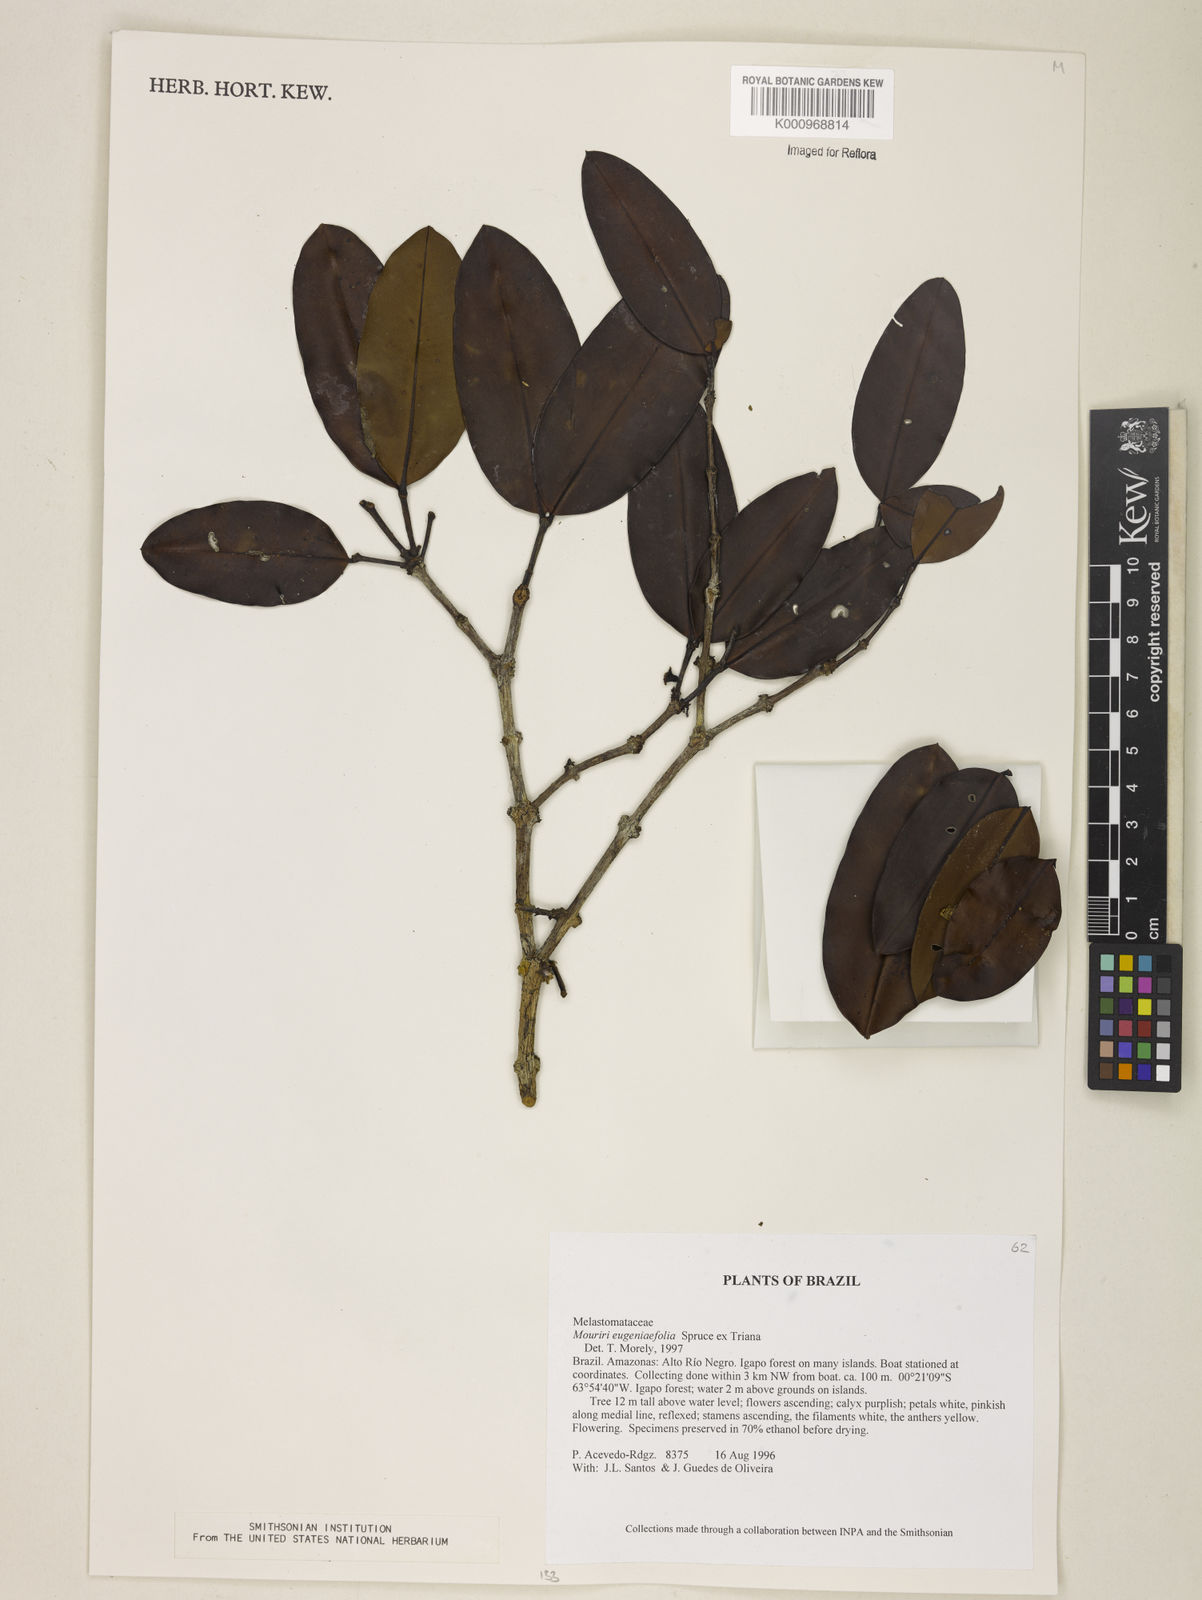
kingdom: Plantae
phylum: Tracheophyta
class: Magnoliopsida
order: Myrtales
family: Melastomataceae
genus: Mouriri
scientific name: Mouriri
